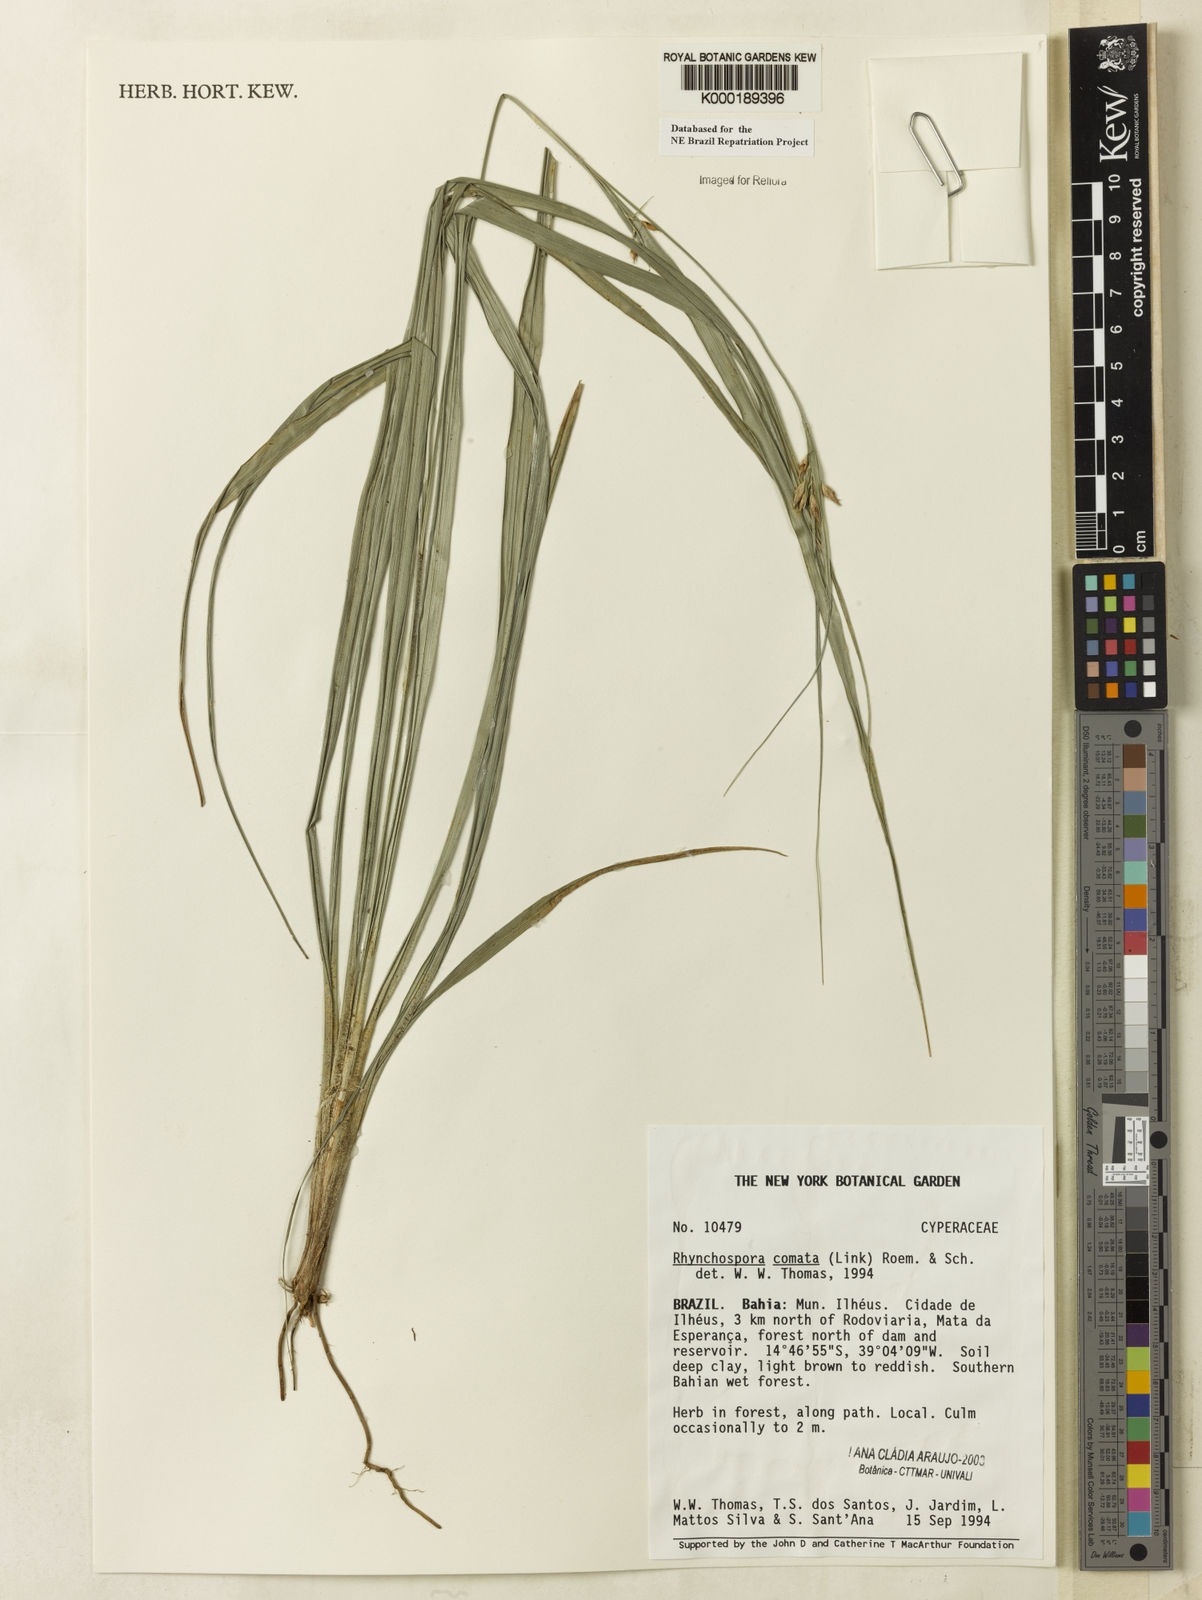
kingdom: Plantae
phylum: Tracheophyta
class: Liliopsida
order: Poales
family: Cyperaceae
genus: Rhynchospora
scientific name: Rhynchospora comata
